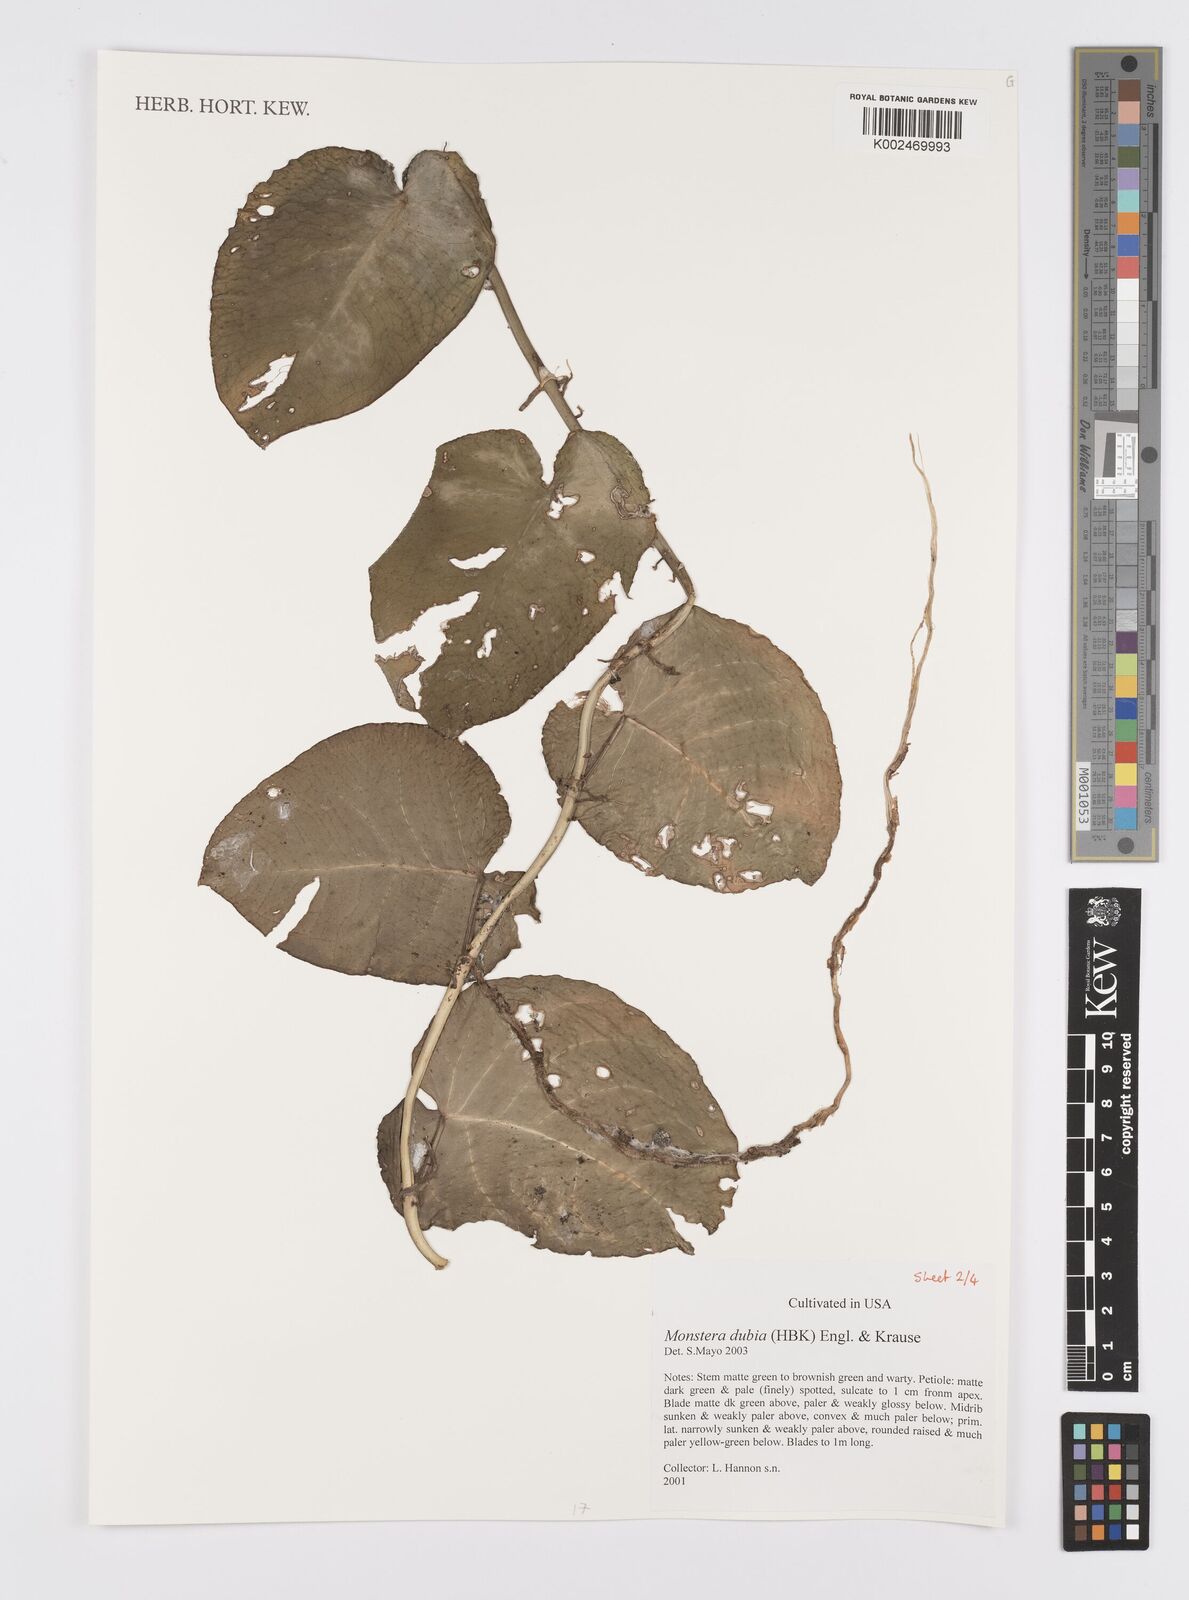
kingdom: Plantae
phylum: Tracheophyta
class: Liliopsida
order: Alismatales
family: Araceae
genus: Monstera
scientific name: Monstera dubia
